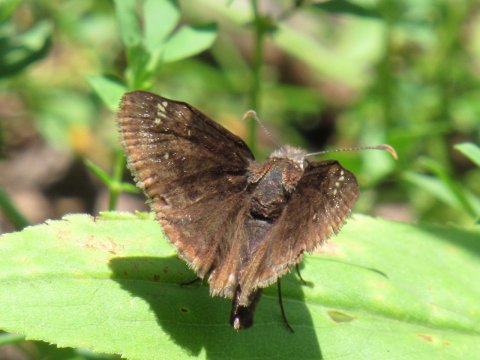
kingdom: Animalia
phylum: Arthropoda
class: Insecta
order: Lepidoptera
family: Hesperiidae
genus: Gesta
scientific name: Gesta
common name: Wild Indigo Duskywing
